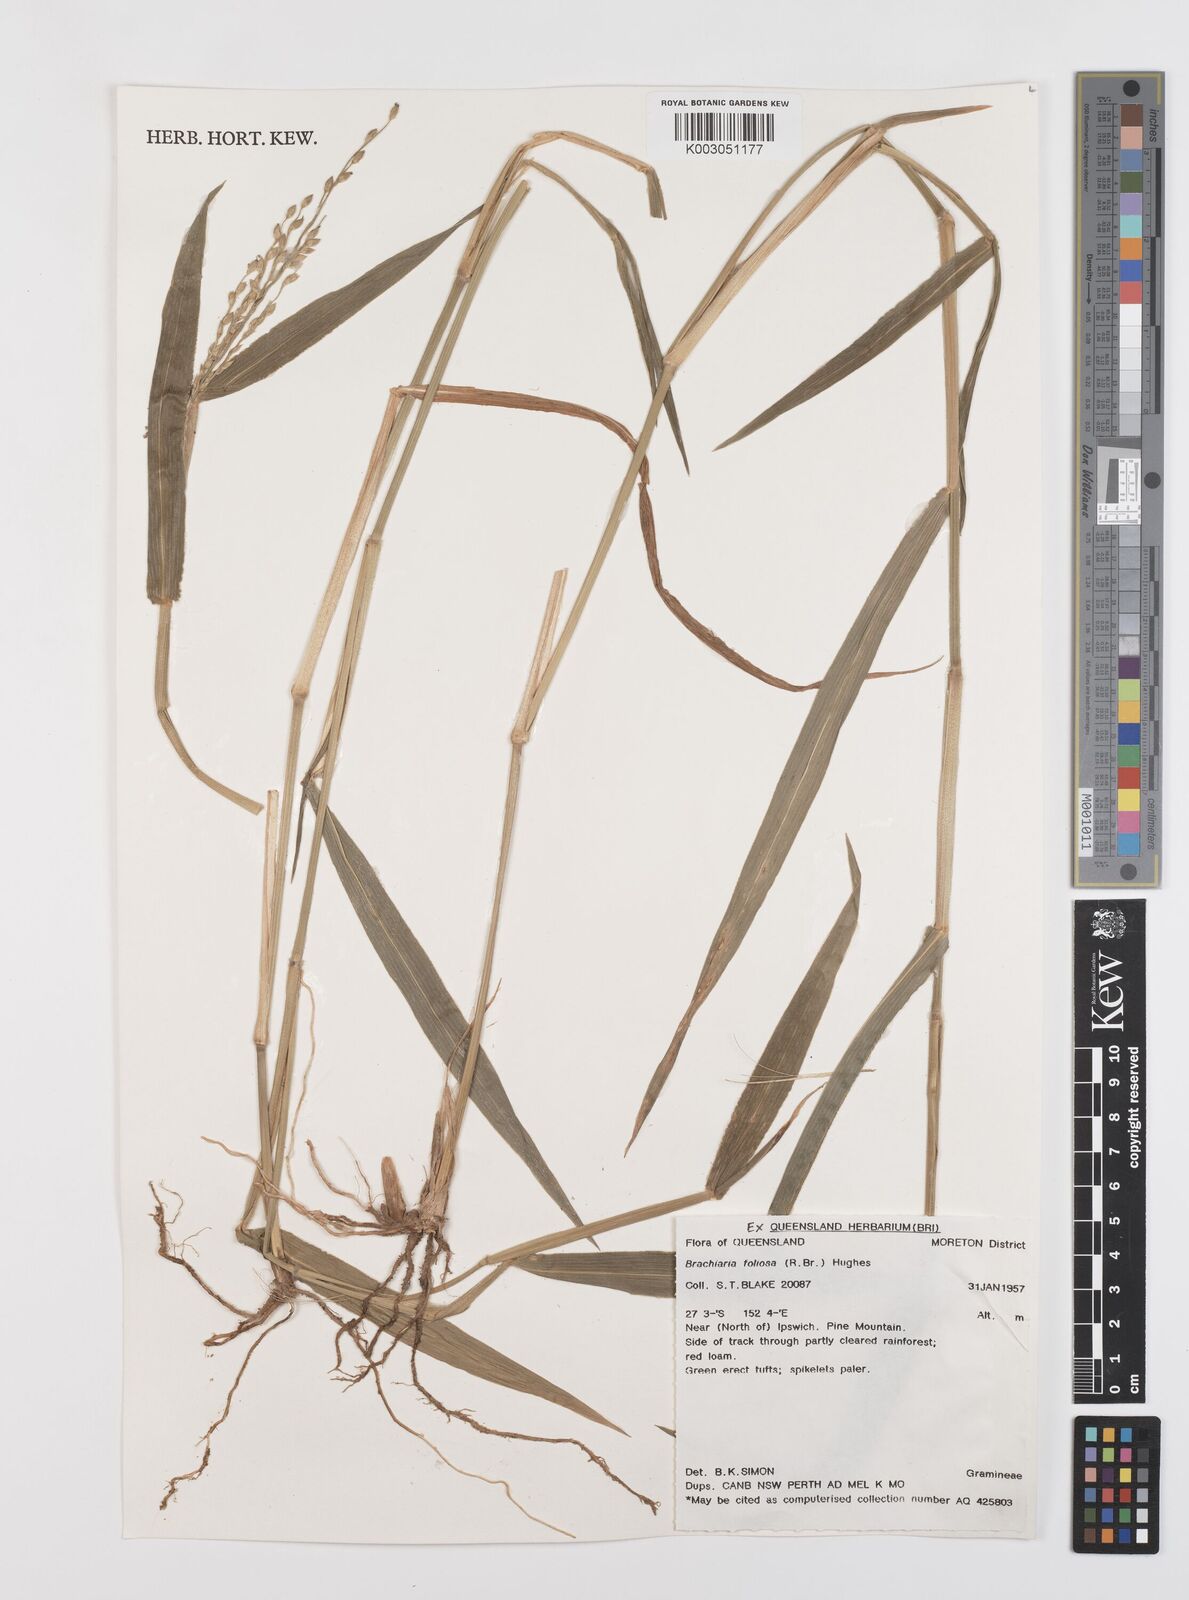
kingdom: Plantae
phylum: Tracheophyta
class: Liliopsida
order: Poales
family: Poaceae
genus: Urochloa
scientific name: Urochloa foliosa
